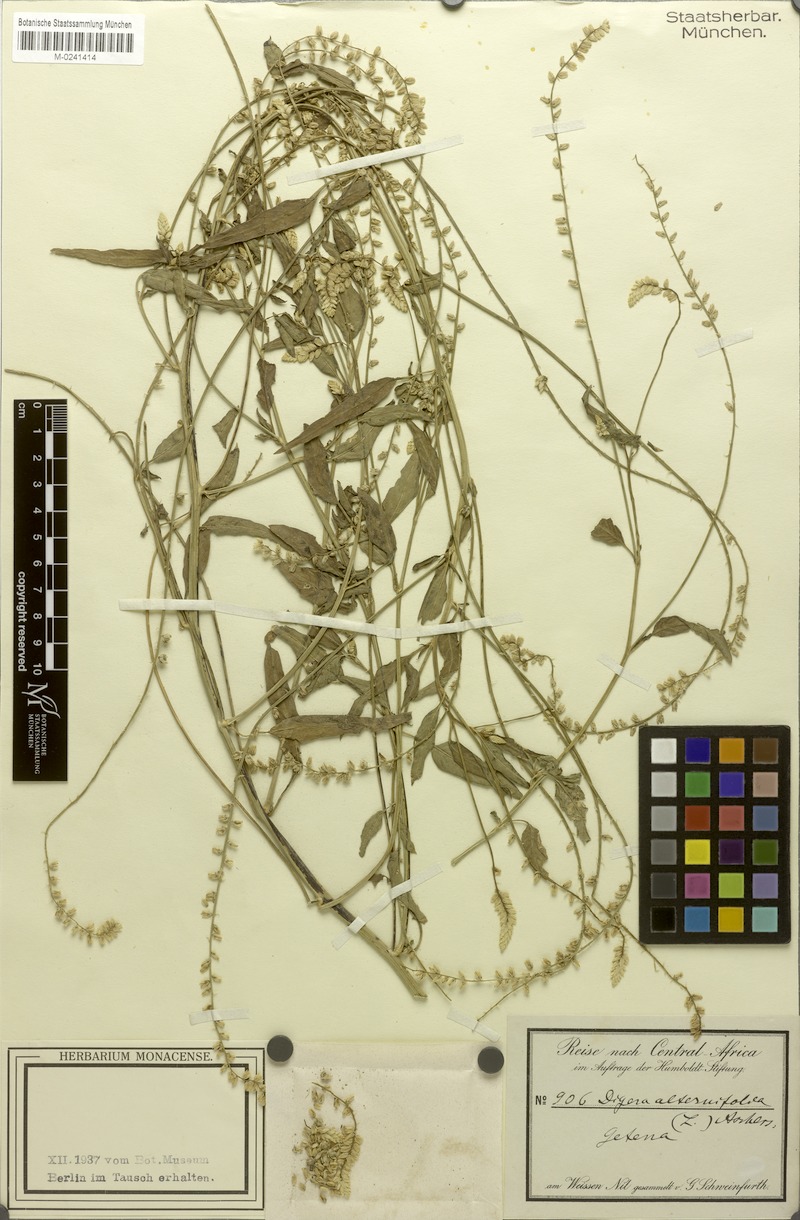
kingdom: Plantae
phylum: Tracheophyta
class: Magnoliopsida
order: Caryophyllales
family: Amaranthaceae
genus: Digera
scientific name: Digera muricata
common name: False amaranth
